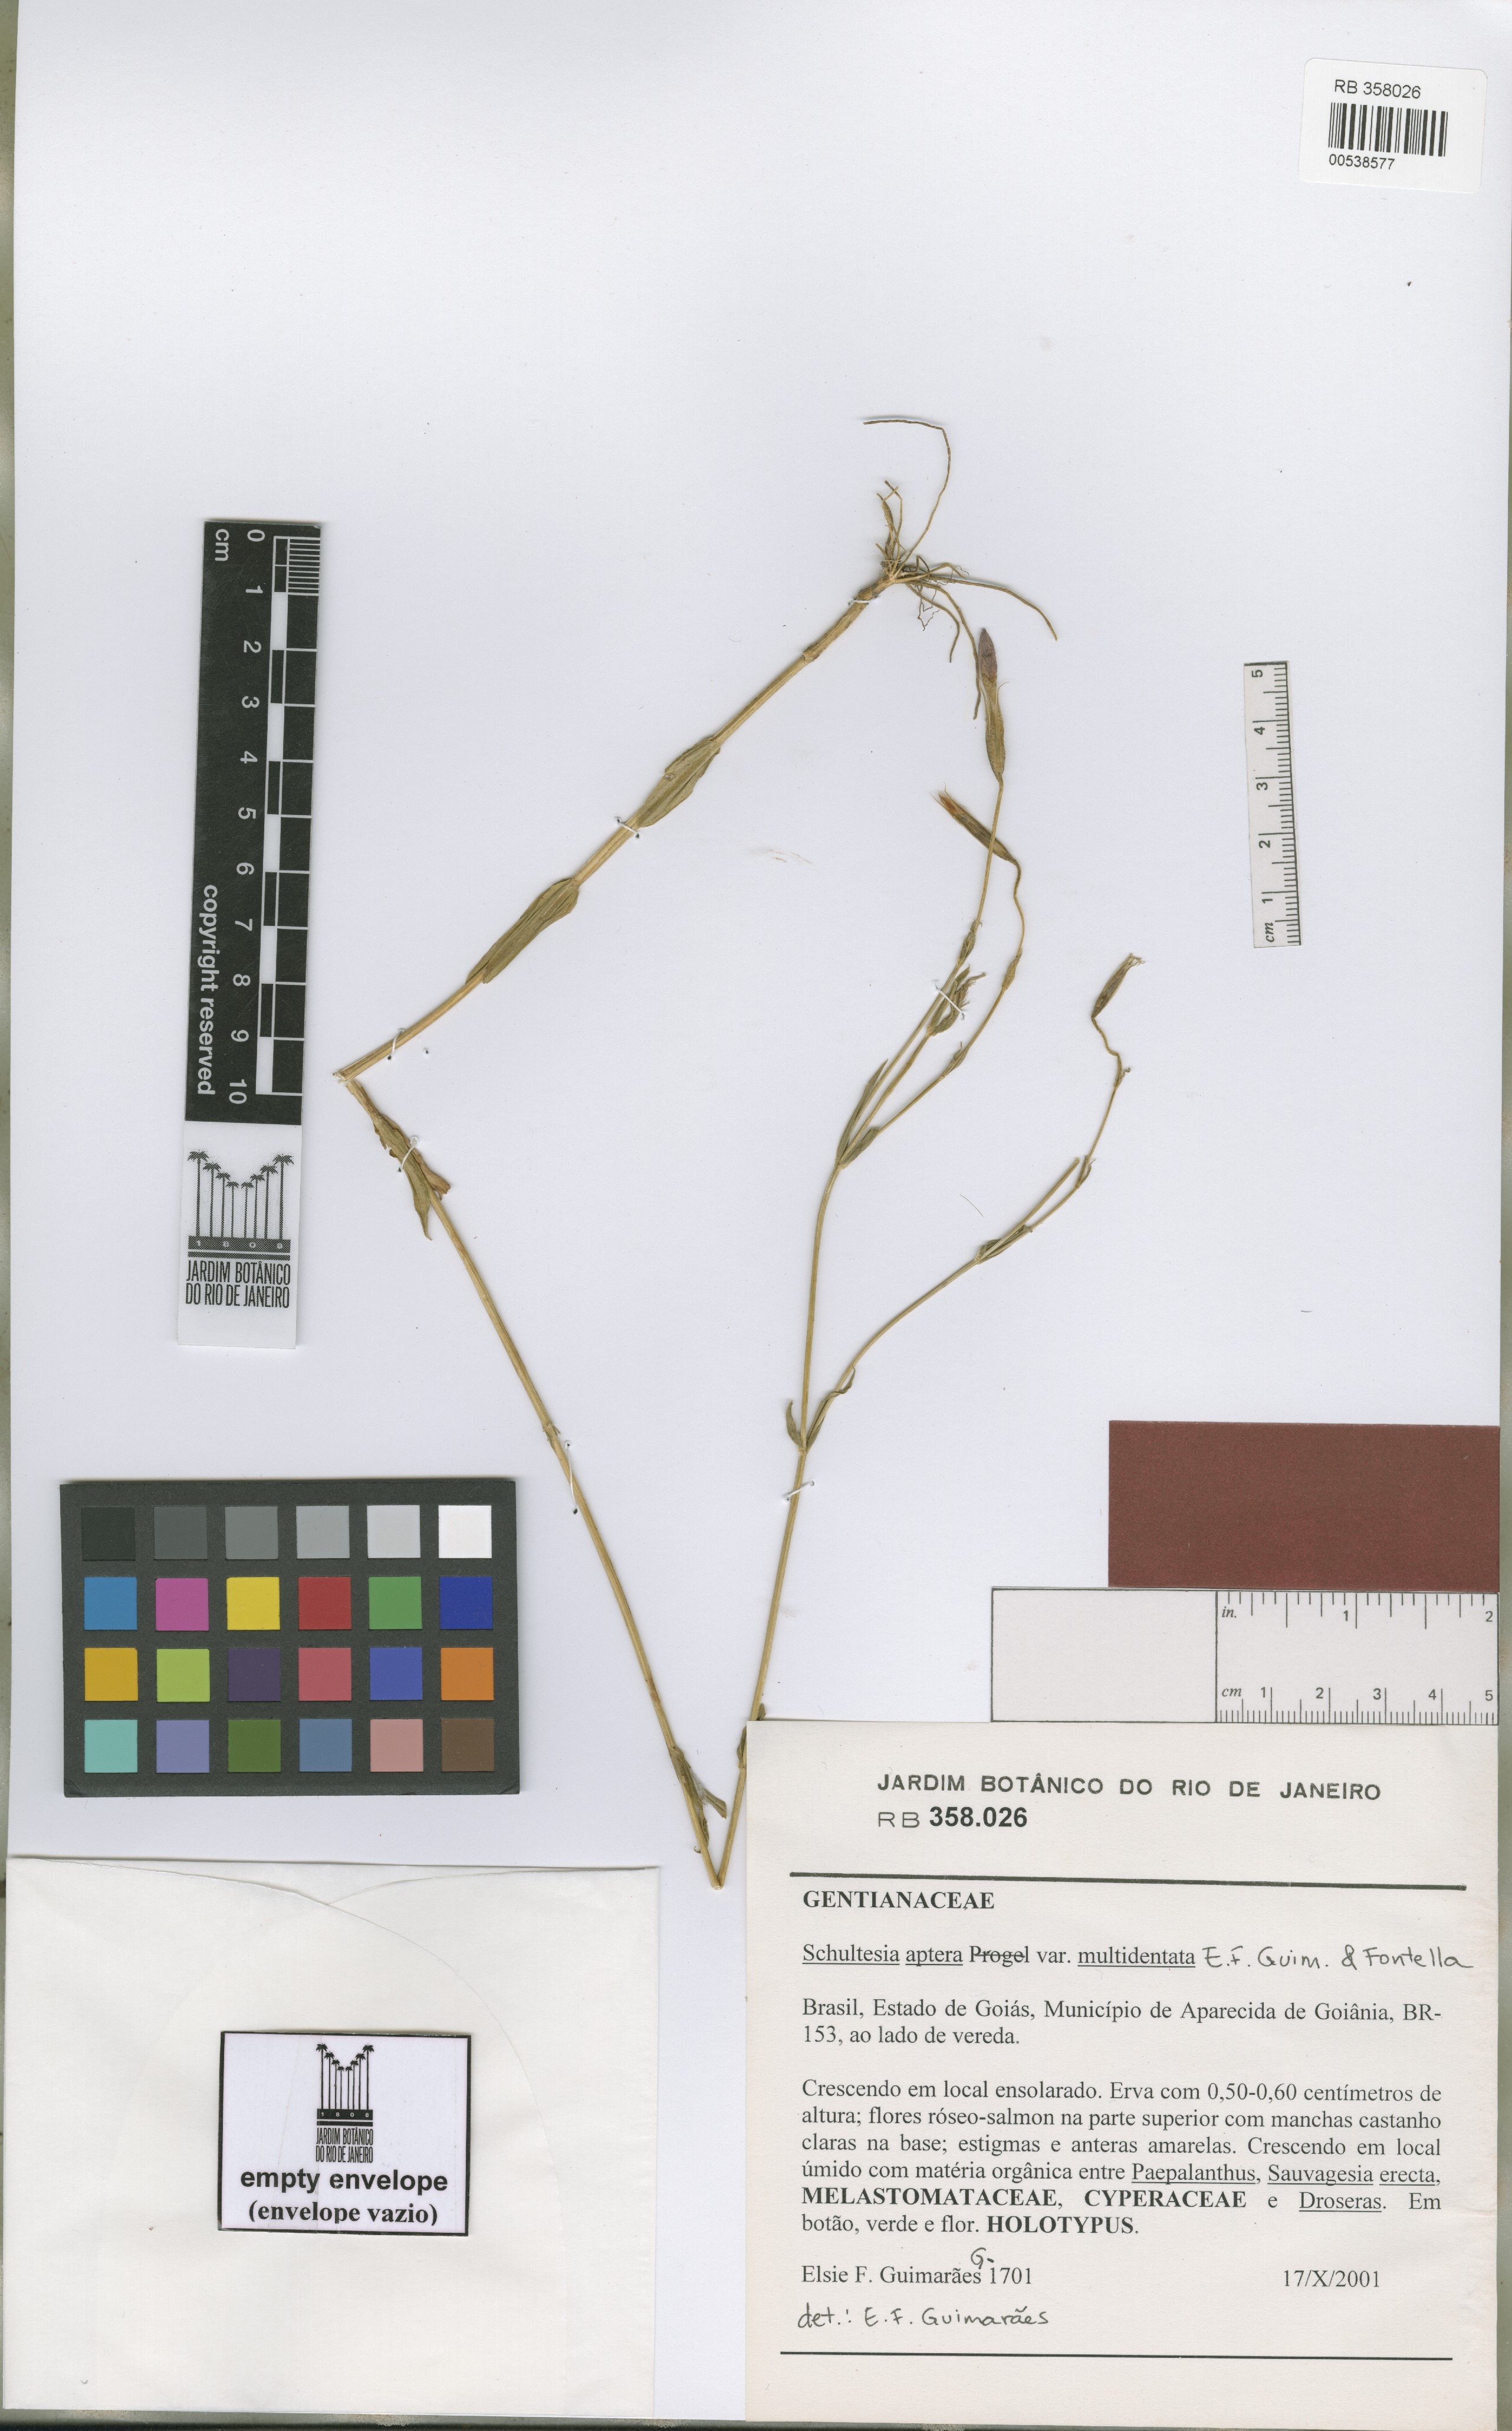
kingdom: Plantae
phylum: Tracheophyta
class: Magnoliopsida
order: Gentianales
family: Gentianaceae
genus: Schultesia
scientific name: Schultesia aptera
